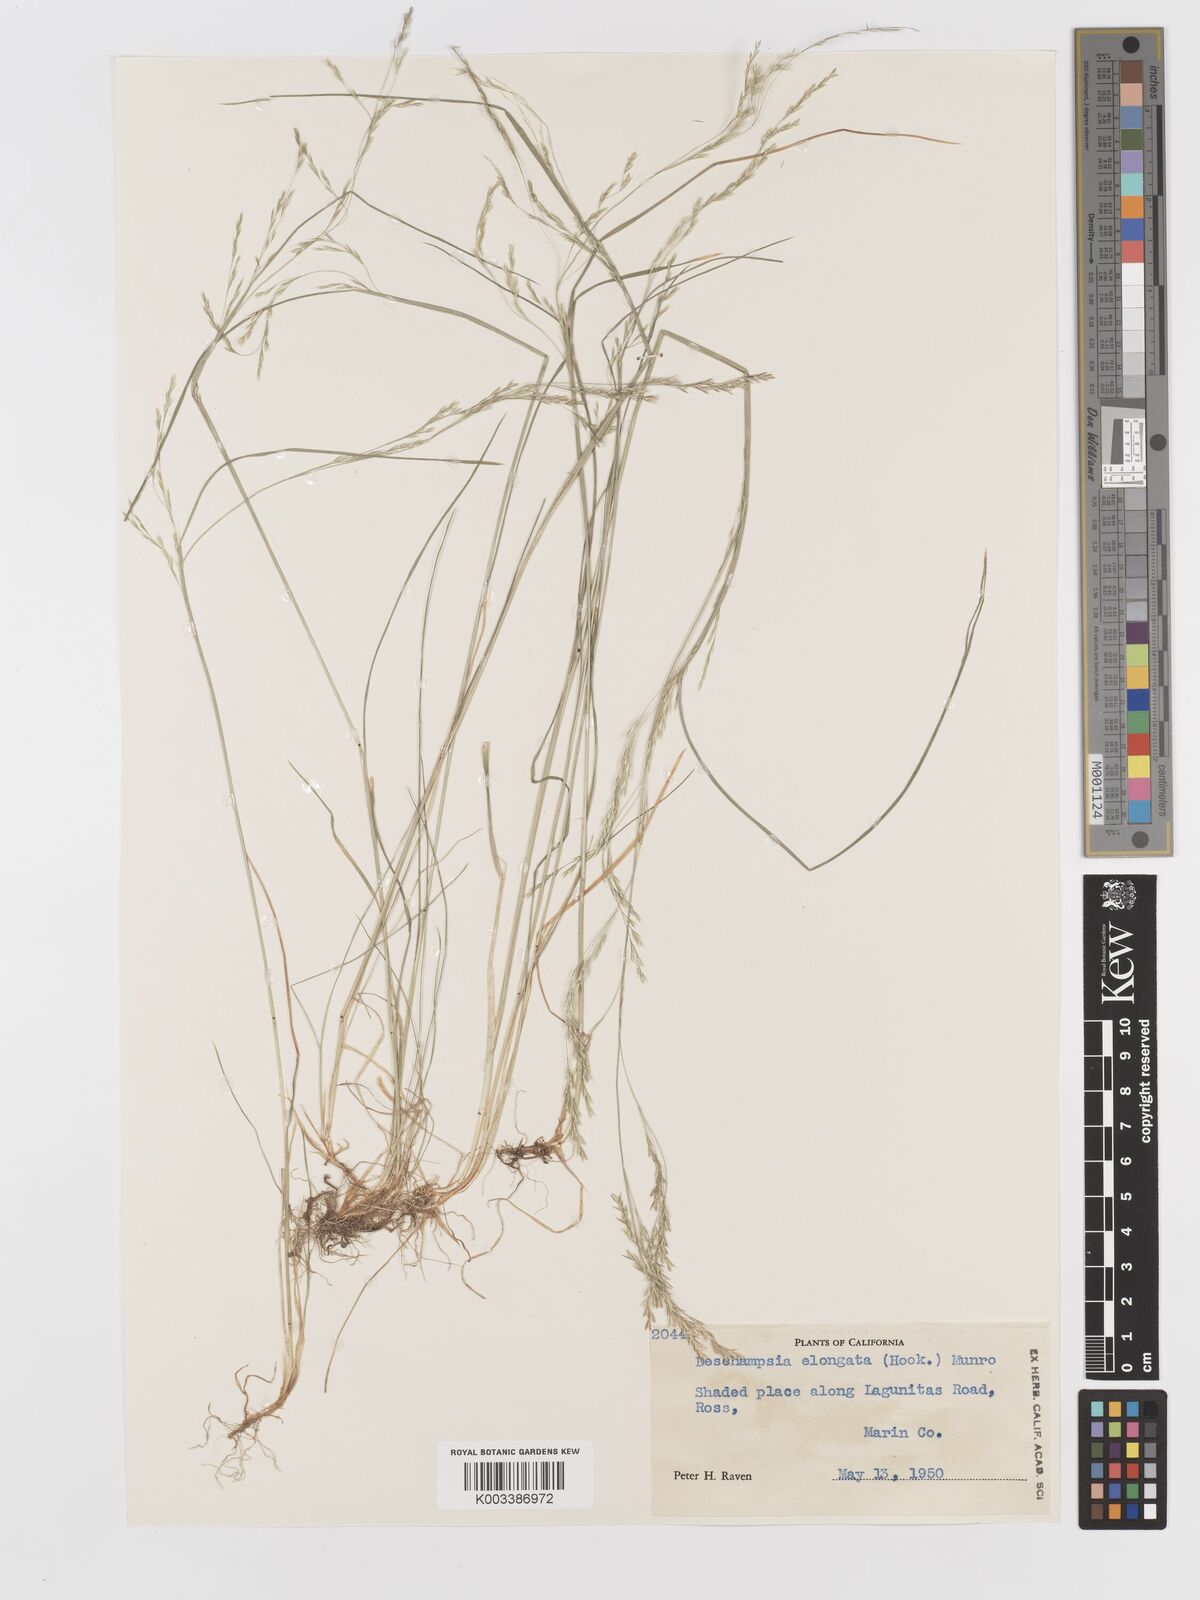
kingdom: Plantae
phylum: Tracheophyta
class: Liliopsida
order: Poales
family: Poaceae
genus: Deschampsia
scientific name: Deschampsia elongata
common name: Slender hairgrass
